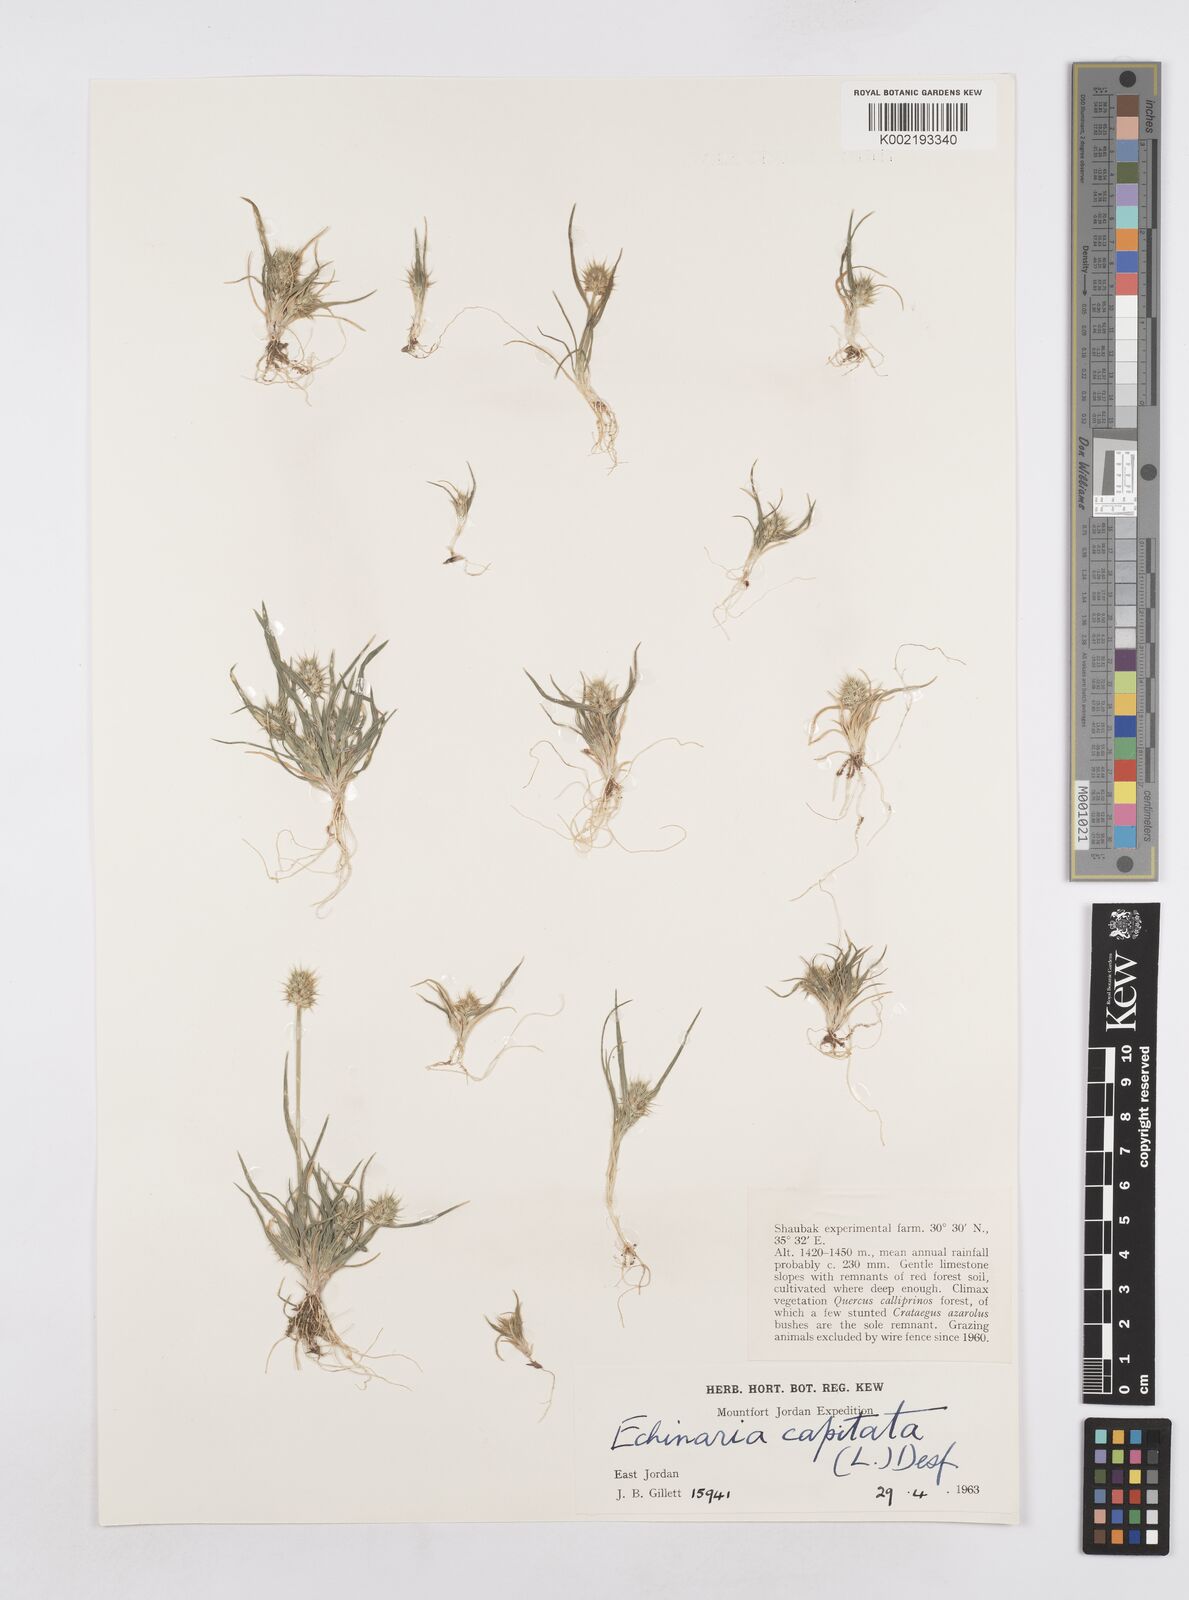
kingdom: Plantae
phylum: Tracheophyta
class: Liliopsida
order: Poales
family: Poaceae
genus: Echinaria
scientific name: Echinaria capitata
